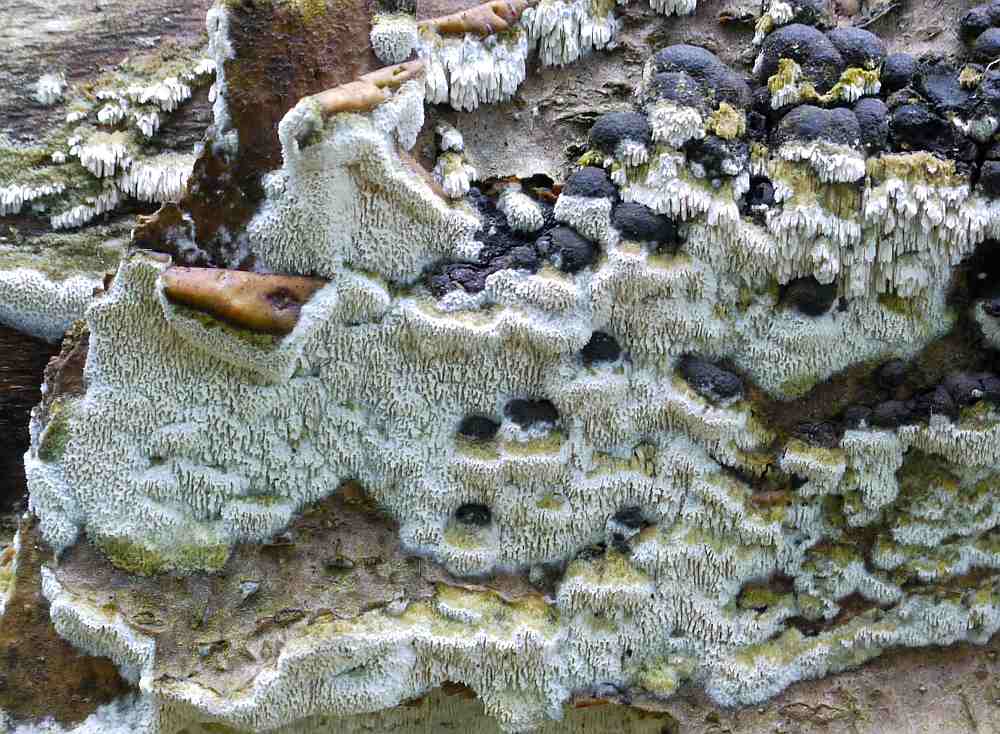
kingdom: Fungi
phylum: Basidiomycota
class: Agaricomycetes
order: Hymenochaetales
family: Schizoporaceae
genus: Schizopora
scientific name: Schizopora paradoxa
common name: hvid tandsvamp
